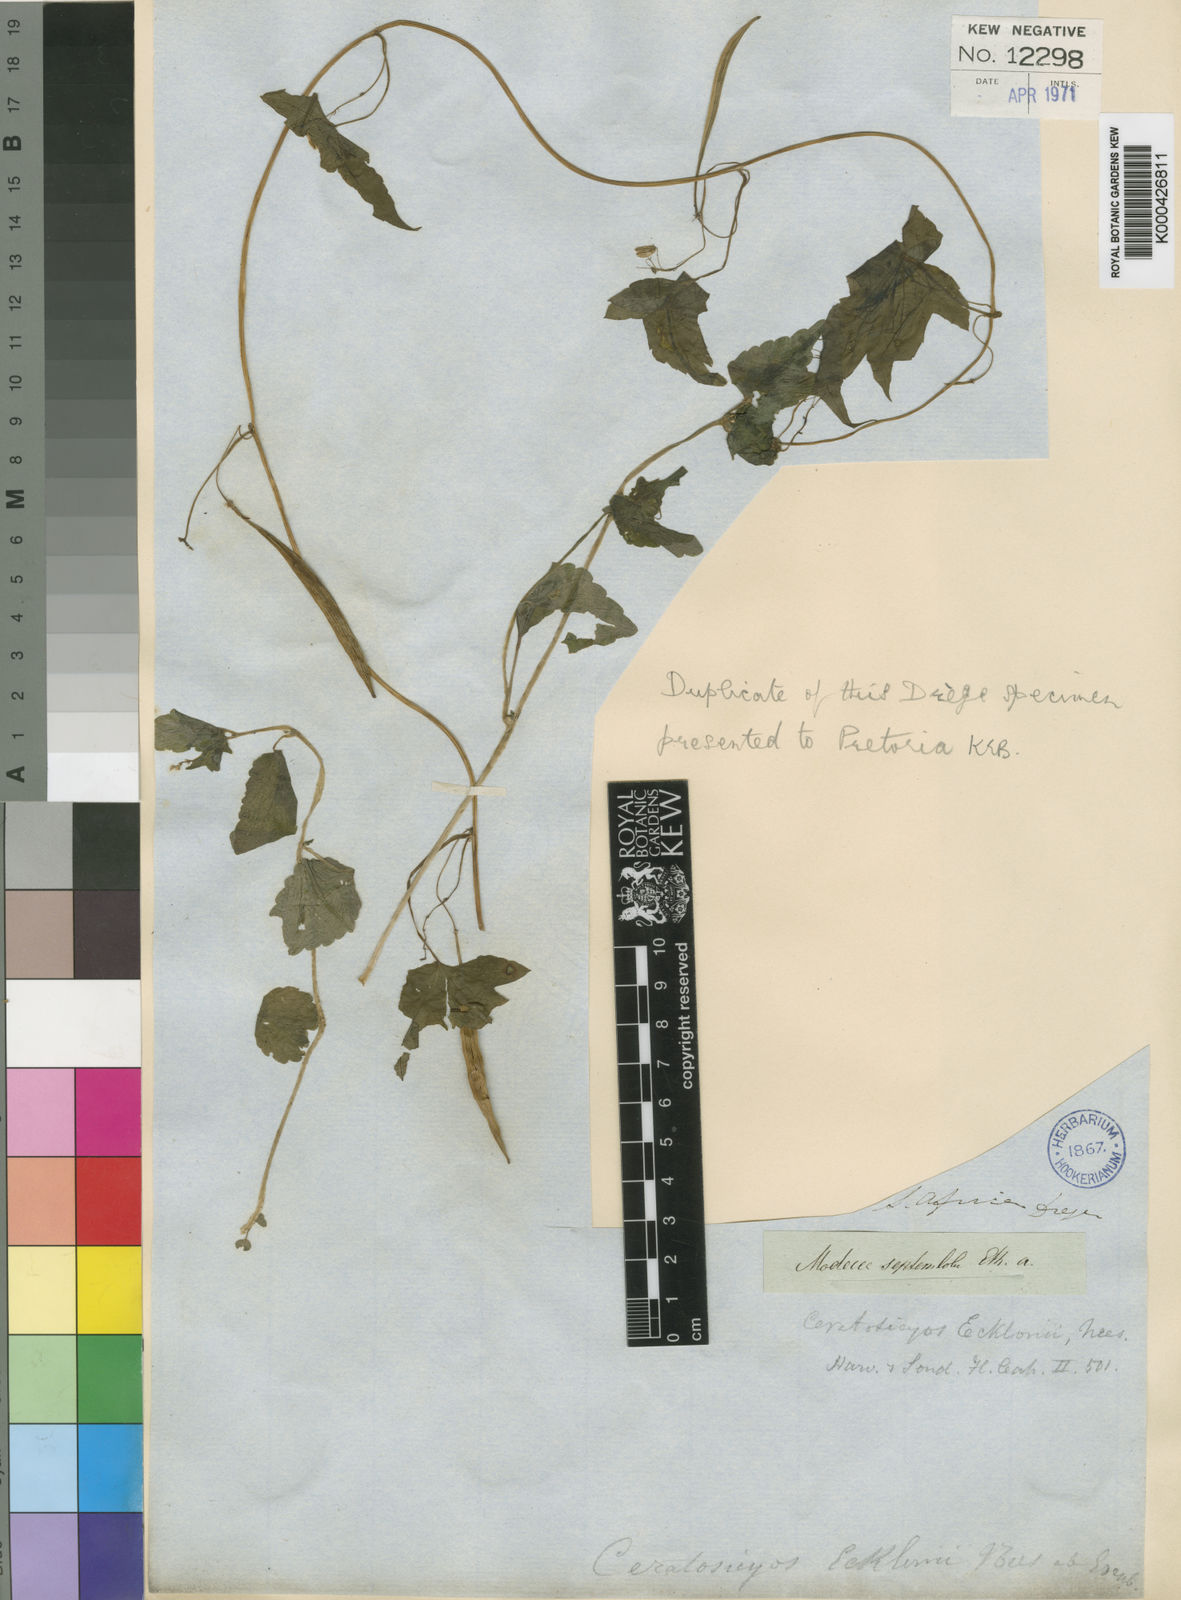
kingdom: Plantae
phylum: Tracheophyta
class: Magnoliopsida
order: Malpighiales
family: Achariaceae
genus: Ceratiosicyos
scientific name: Ceratiosicyos laevis
